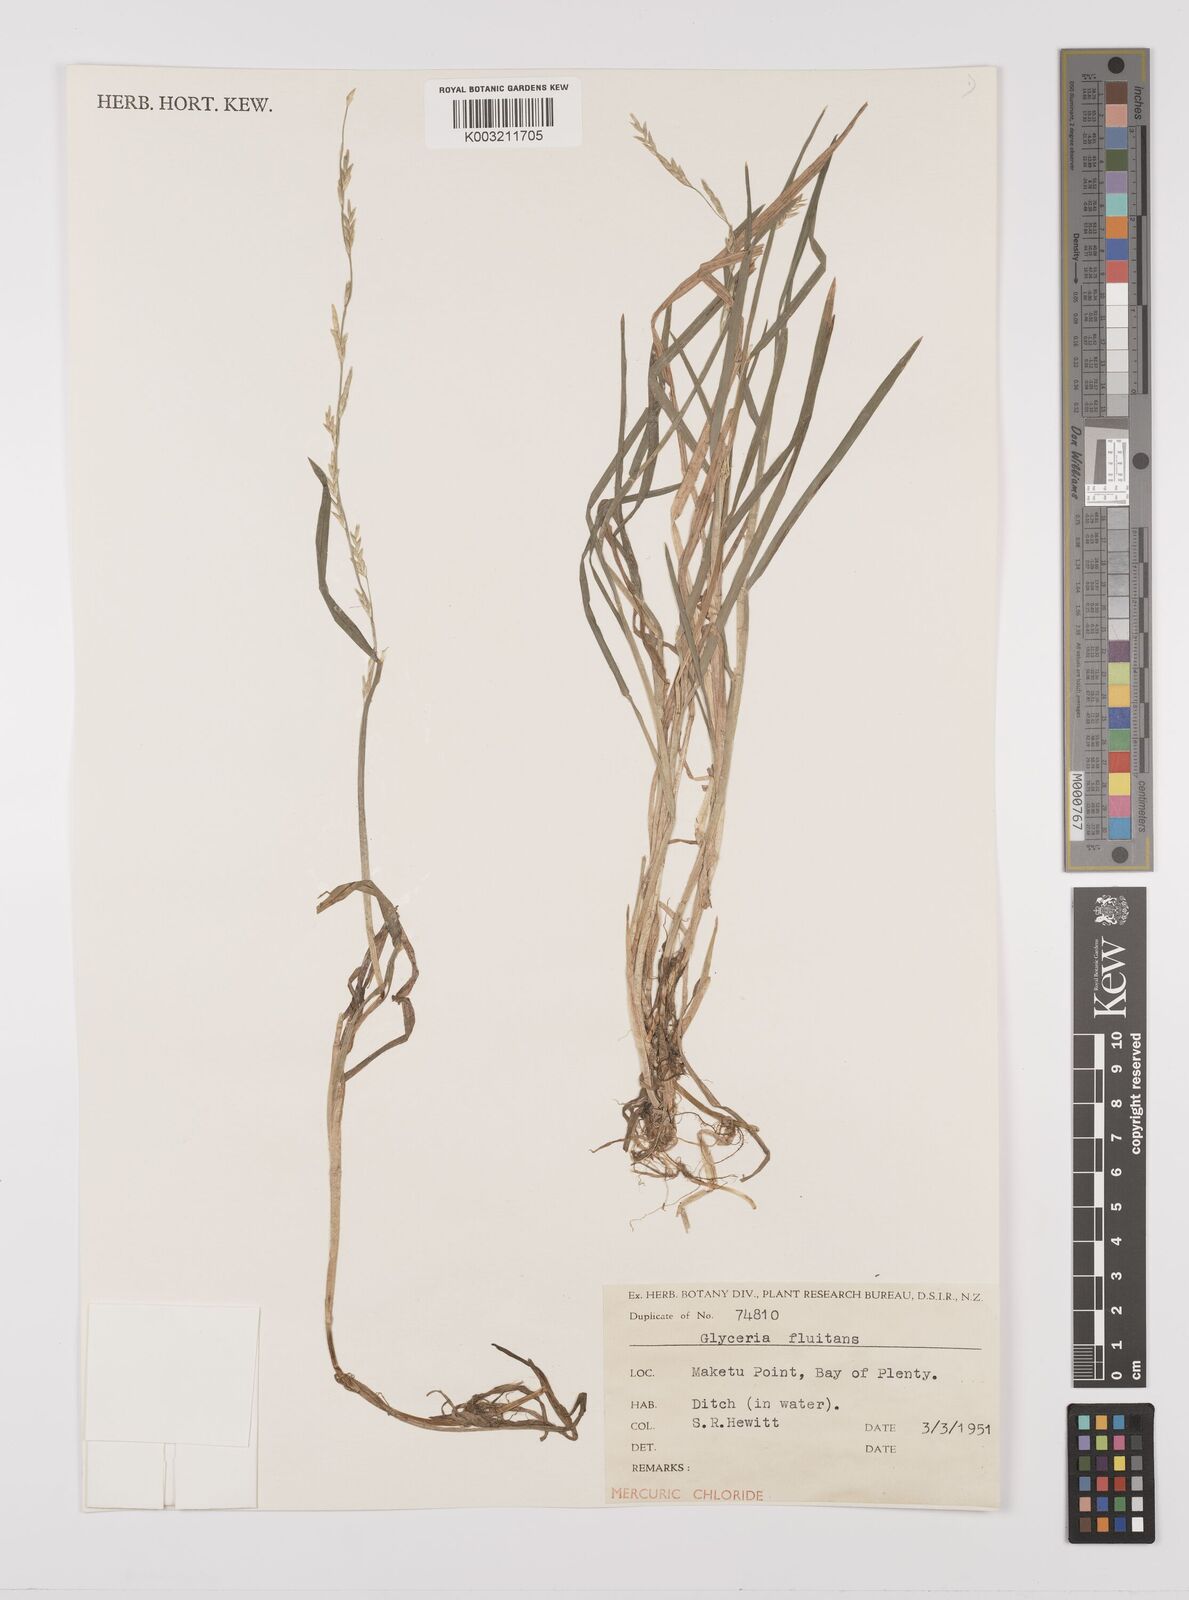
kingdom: Plantae
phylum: Tracheophyta
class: Liliopsida
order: Poales
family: Poaceae
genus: Glyceria
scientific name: Glyceria fluitans
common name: Floating sweet-grass
